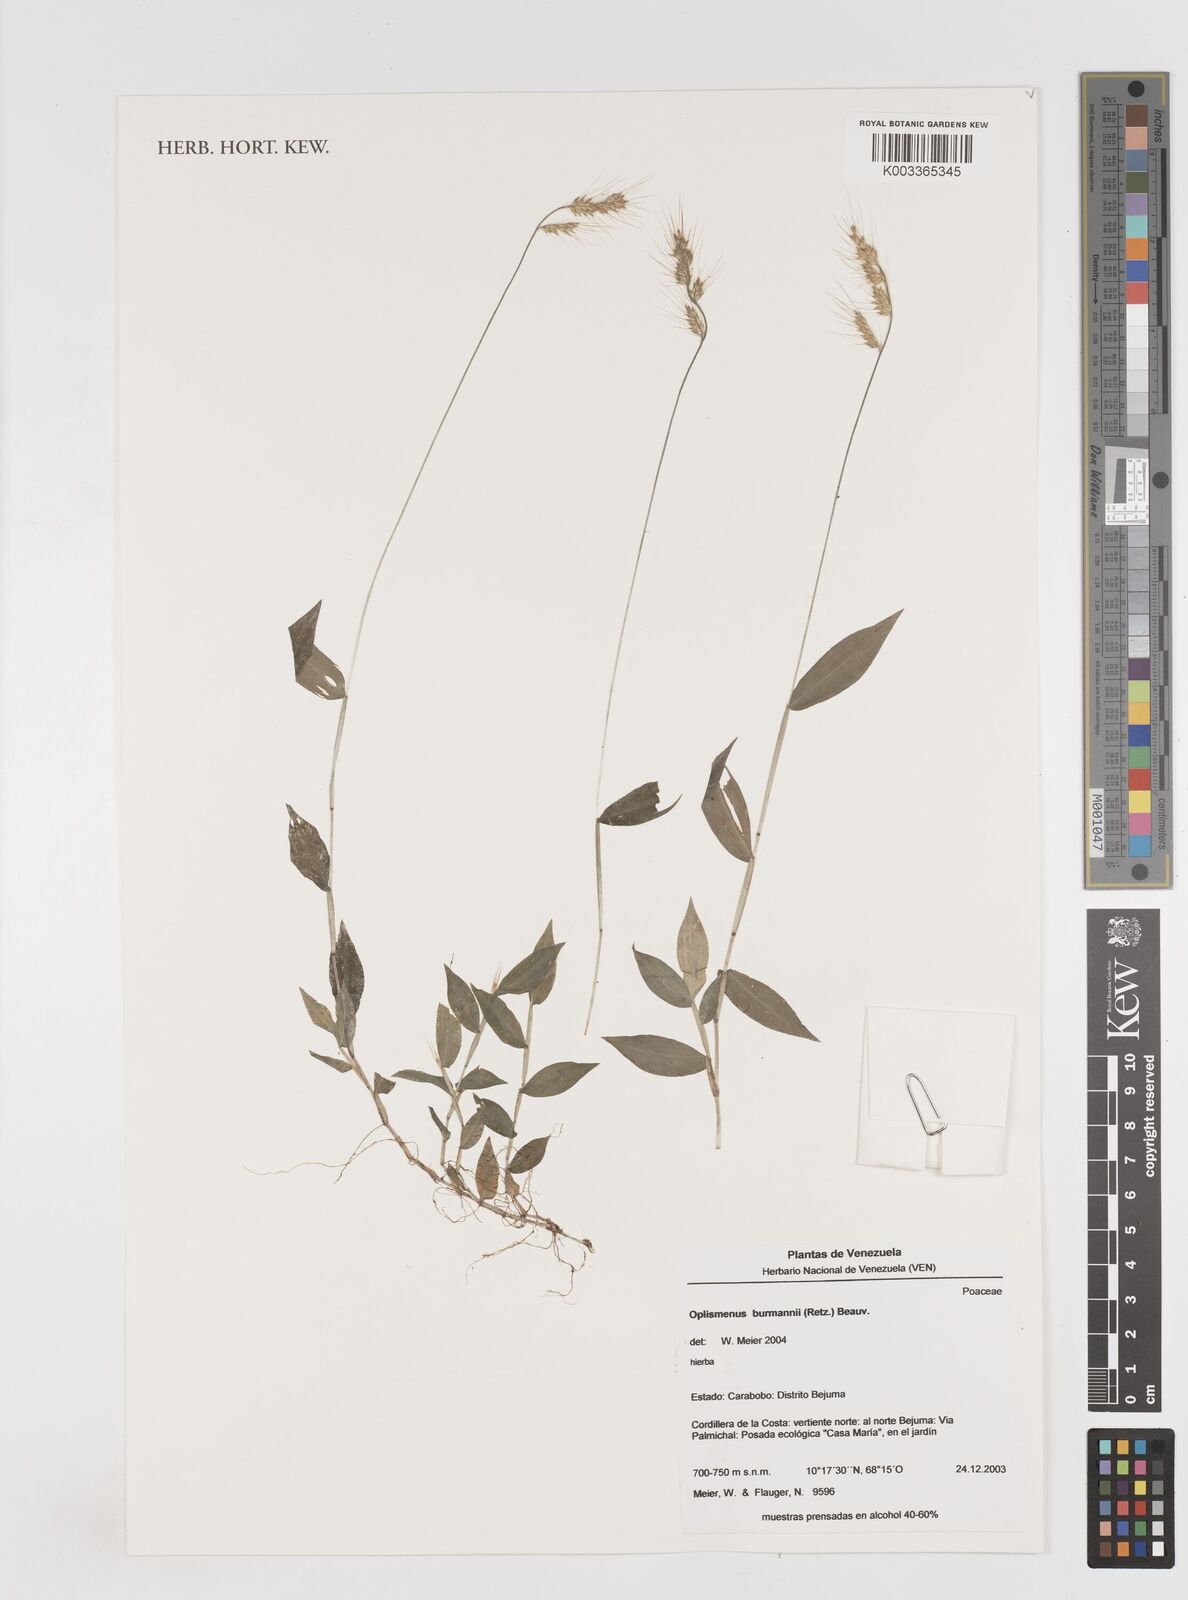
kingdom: Plantae
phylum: Tracheophyta
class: Liliopsida
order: Poales
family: Poaceae
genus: Oplismenus
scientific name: Oplismenus burmanni
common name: Burmann's basketgrass
